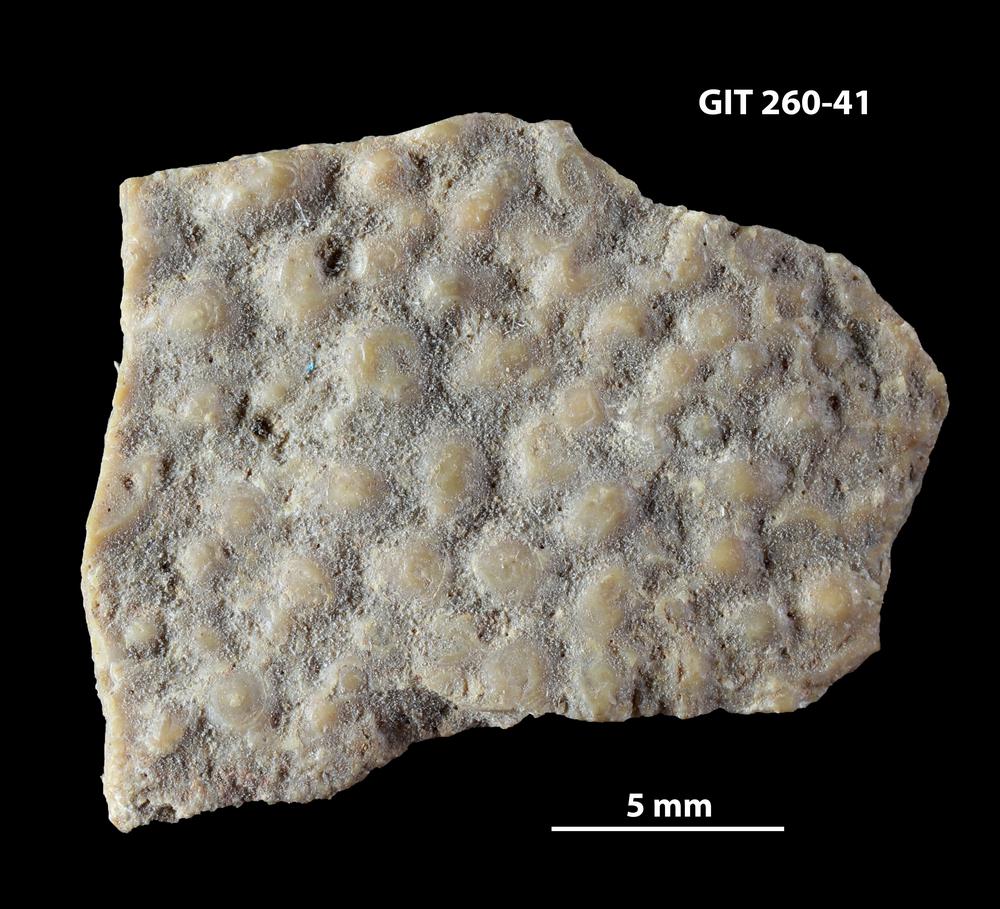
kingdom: Animalia
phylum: Chordata
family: Homostiidae
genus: Homostius
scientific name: Homostius
